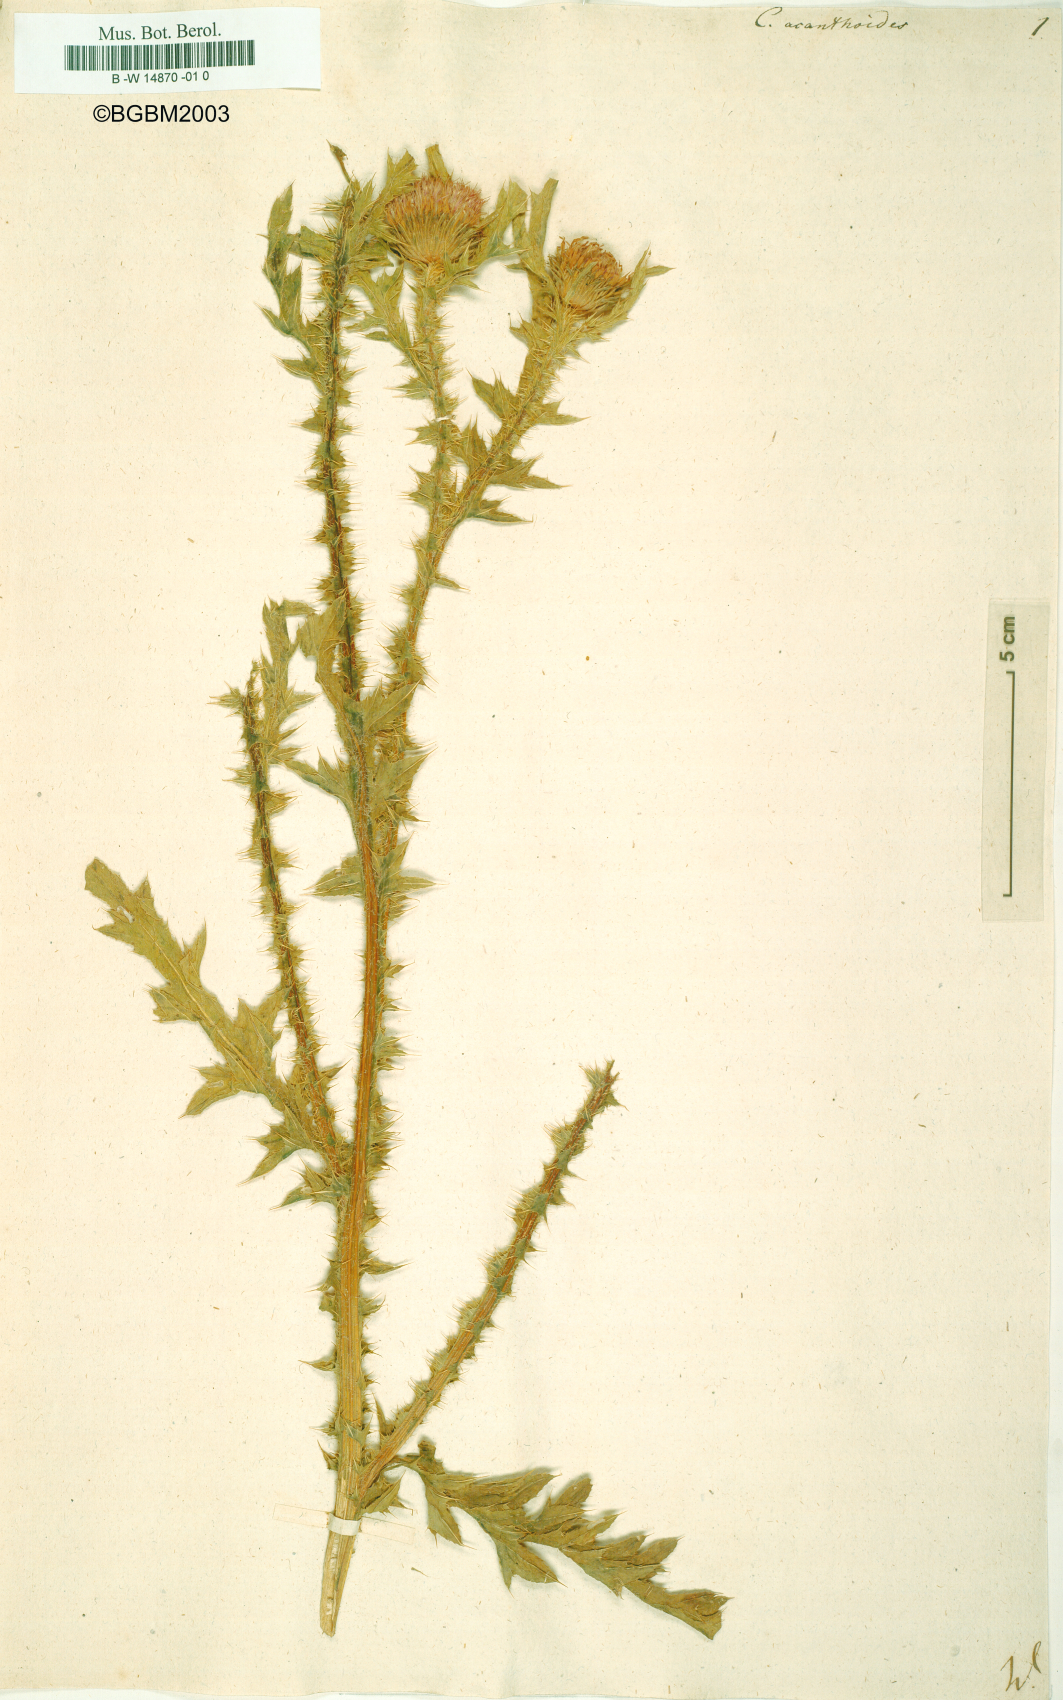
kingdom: Plantae
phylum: Tracheophyta
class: Magnoliopsida
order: Asterales
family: Asteraceae
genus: Carduus
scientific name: Carduus acanthoides
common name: Plumeless thistle
